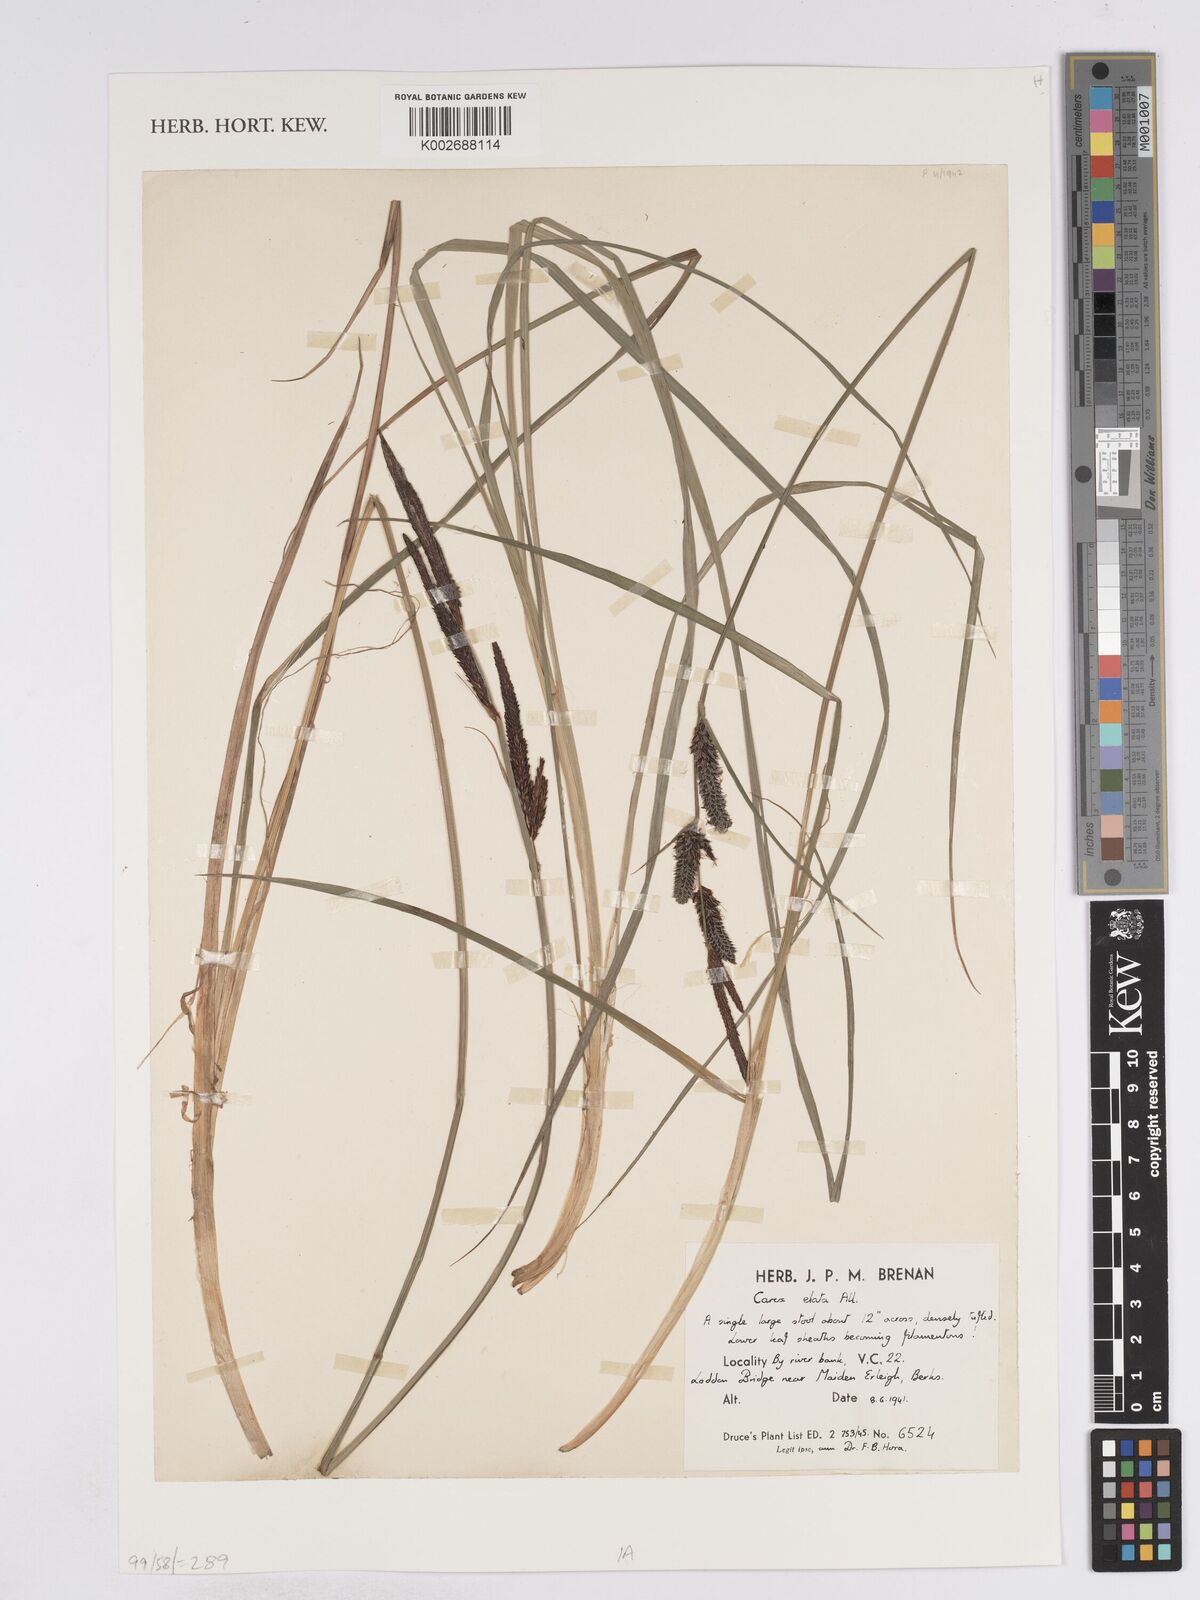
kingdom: Plantae
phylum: Tracheophyta
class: Liliopsida
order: Poales
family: Cyperaceae
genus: Carex
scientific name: Carex elata
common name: Tufted sedge
